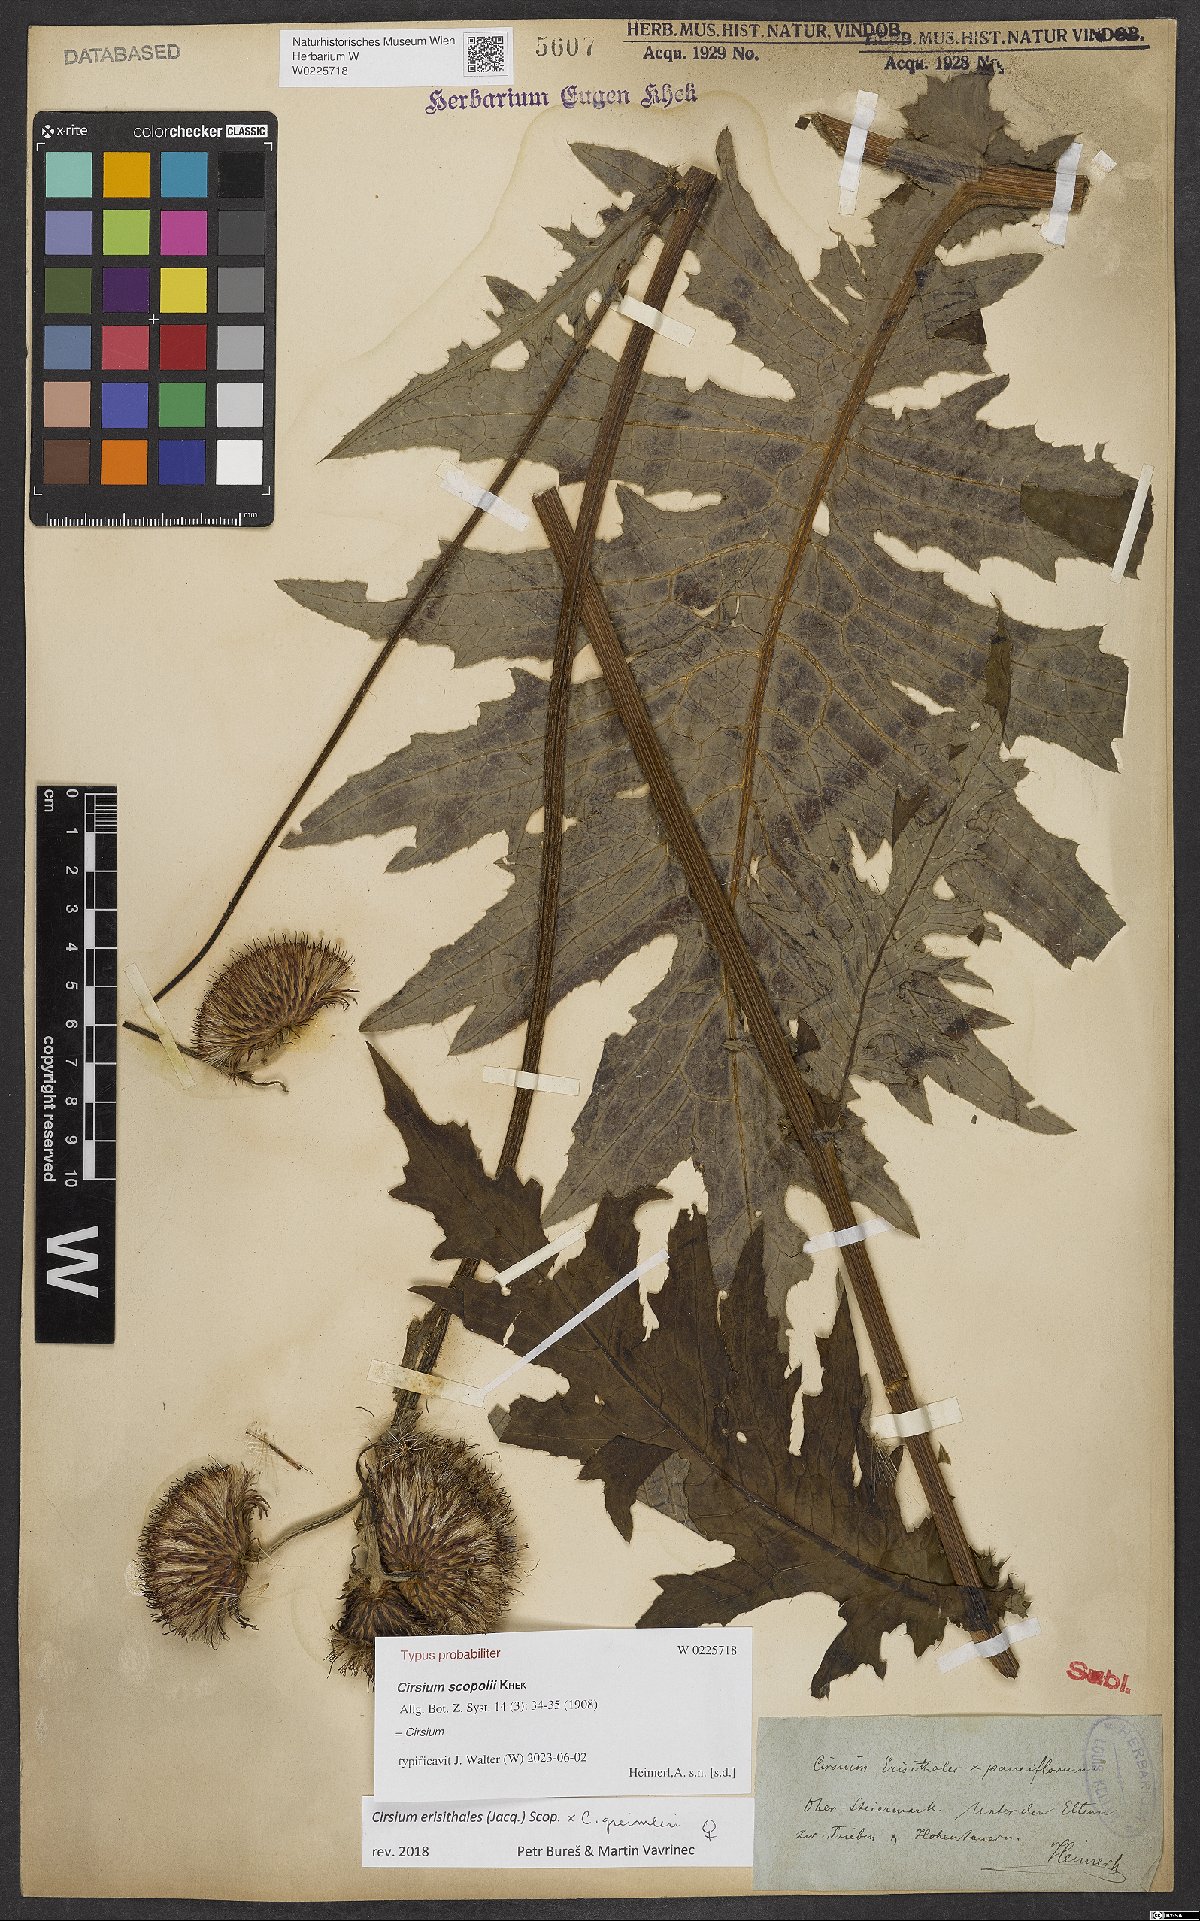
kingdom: Plantae
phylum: Tracheophyta
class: Magnoliopsida
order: Asterales
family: Asteraceae
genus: Cirsium
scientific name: Cirsium scopolii
